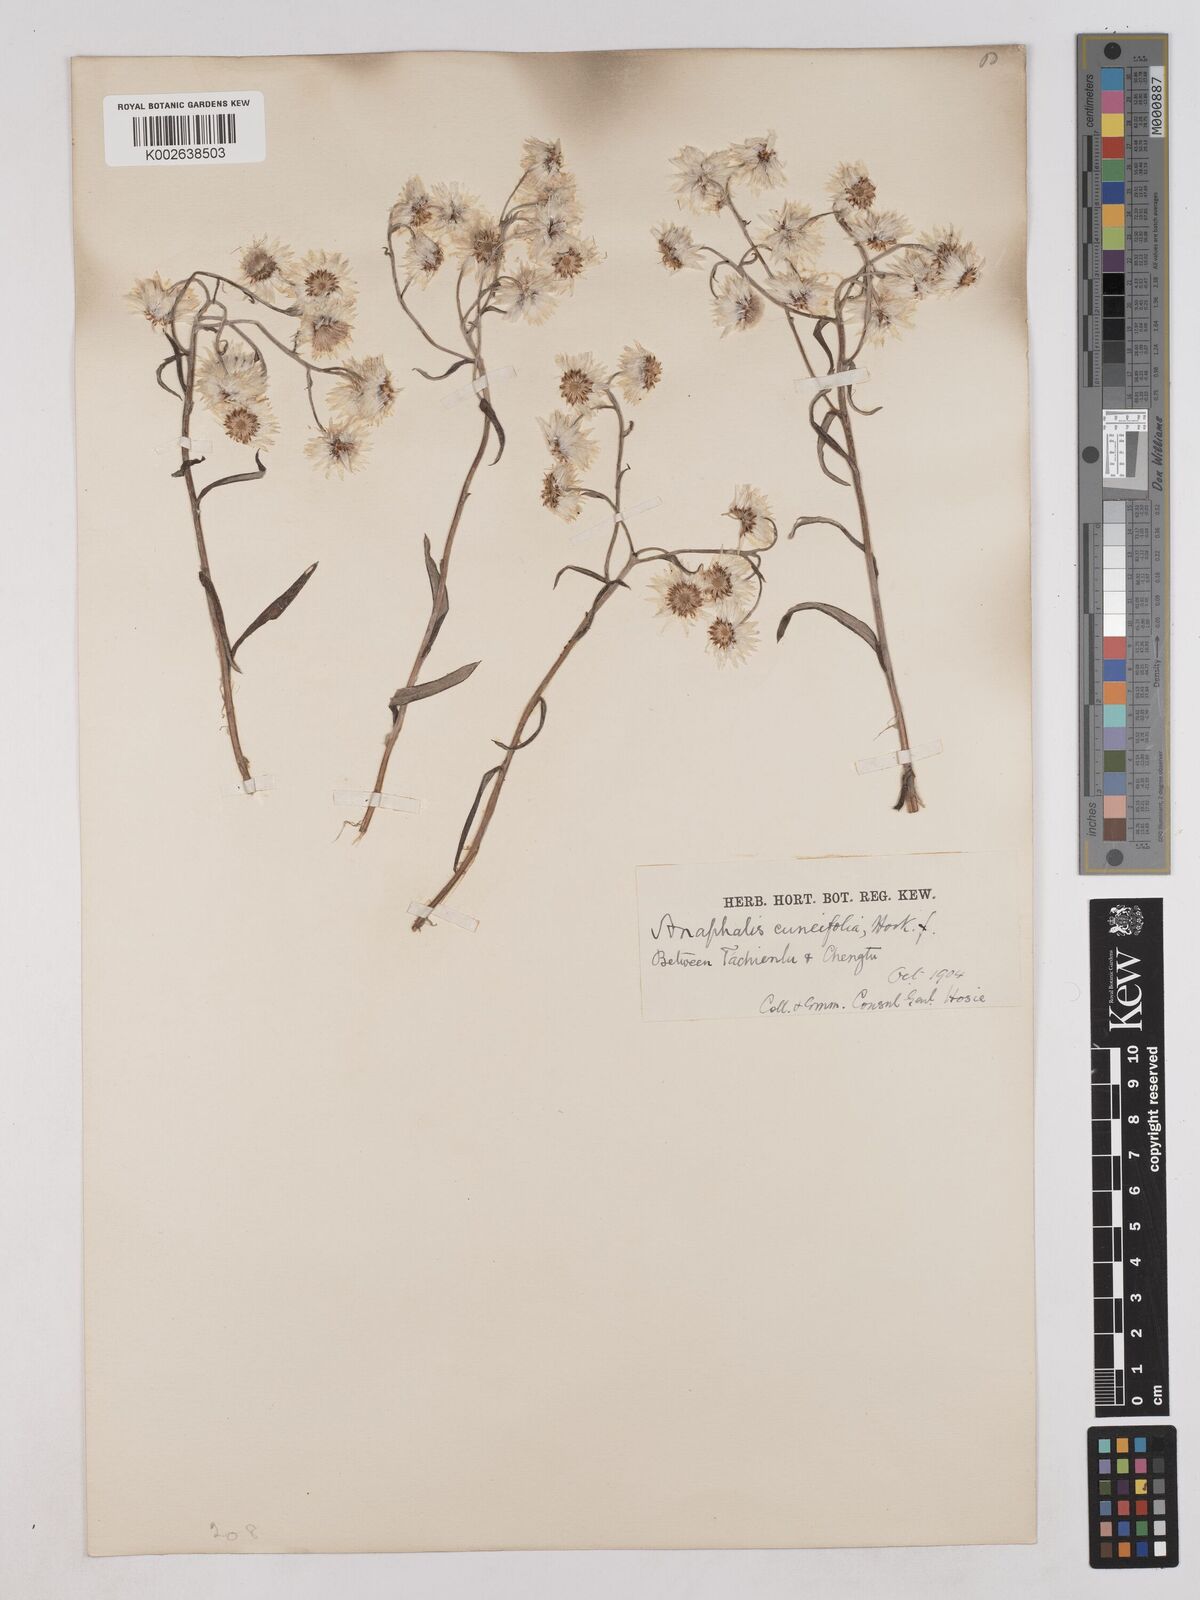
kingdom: Plantae
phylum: Tracheophyta
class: Magnoliopsida
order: Asterales
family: Asteraceae
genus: Anaphalis
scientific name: Anaphalis nepalensis
